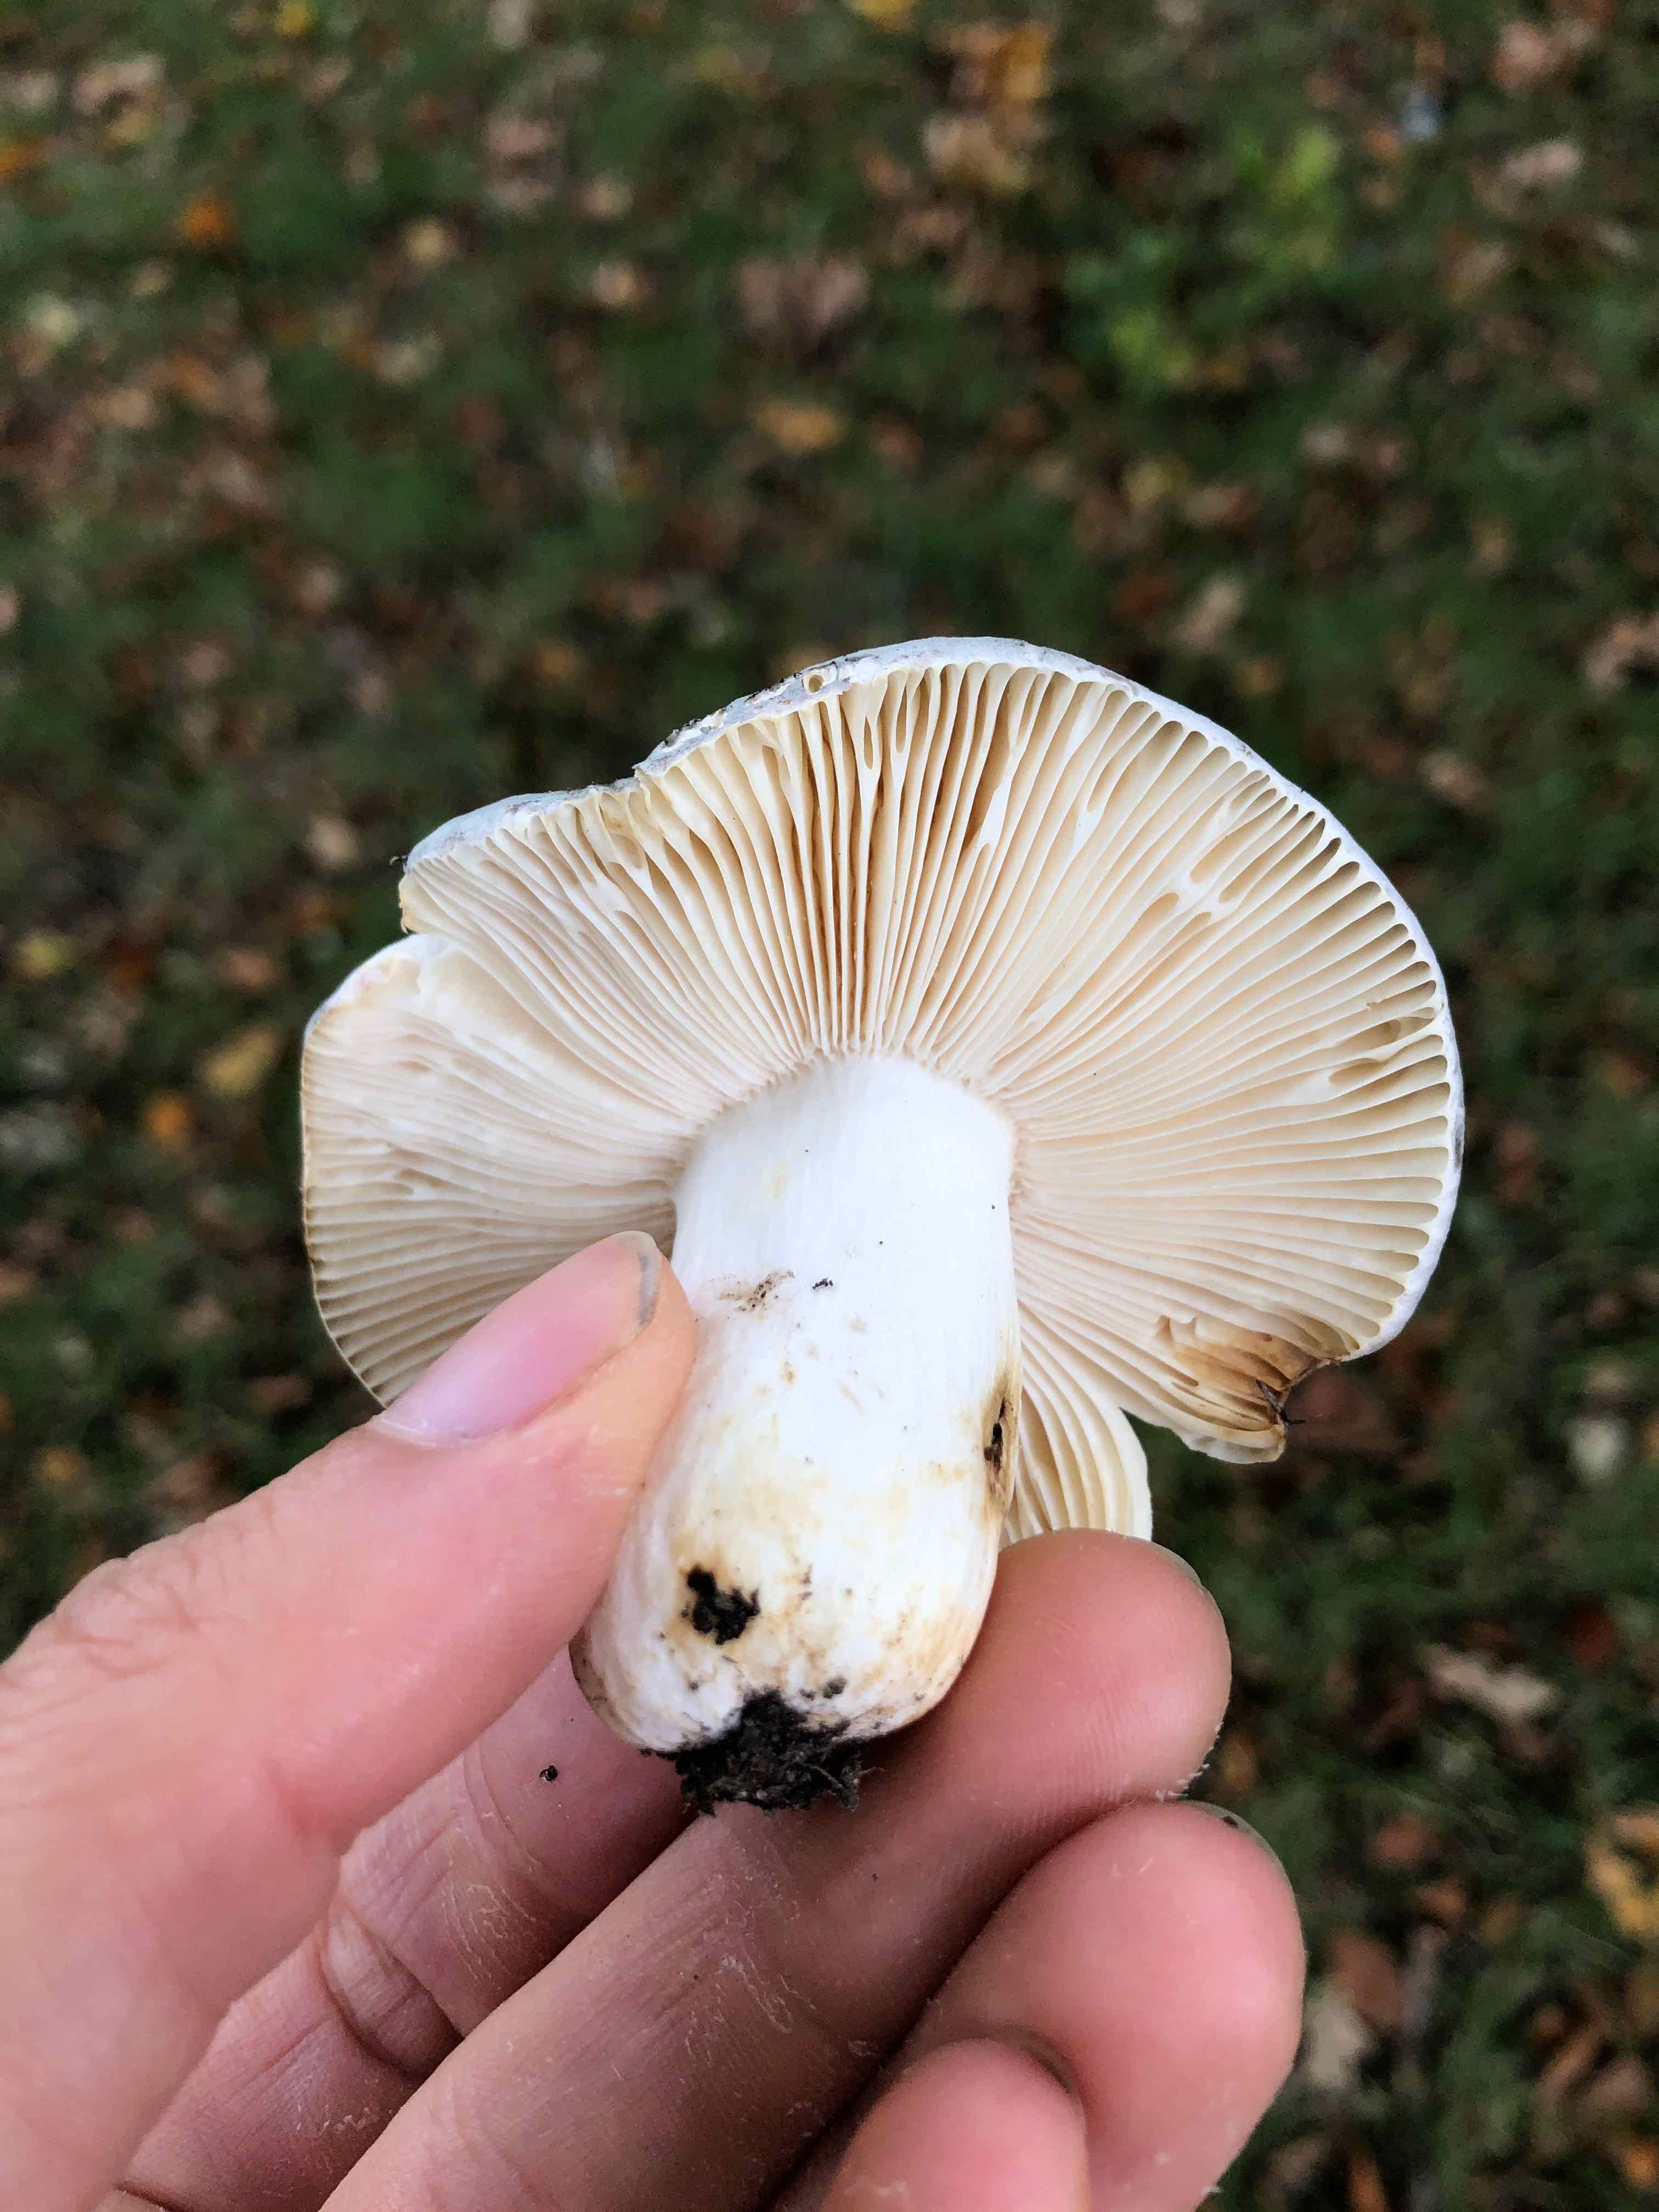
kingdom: Fungi
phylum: Basidiomycota
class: Agaricomycetes
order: Russulales
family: Russulaceae
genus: Russula
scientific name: Russula parazurea
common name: blågrå skørhat
